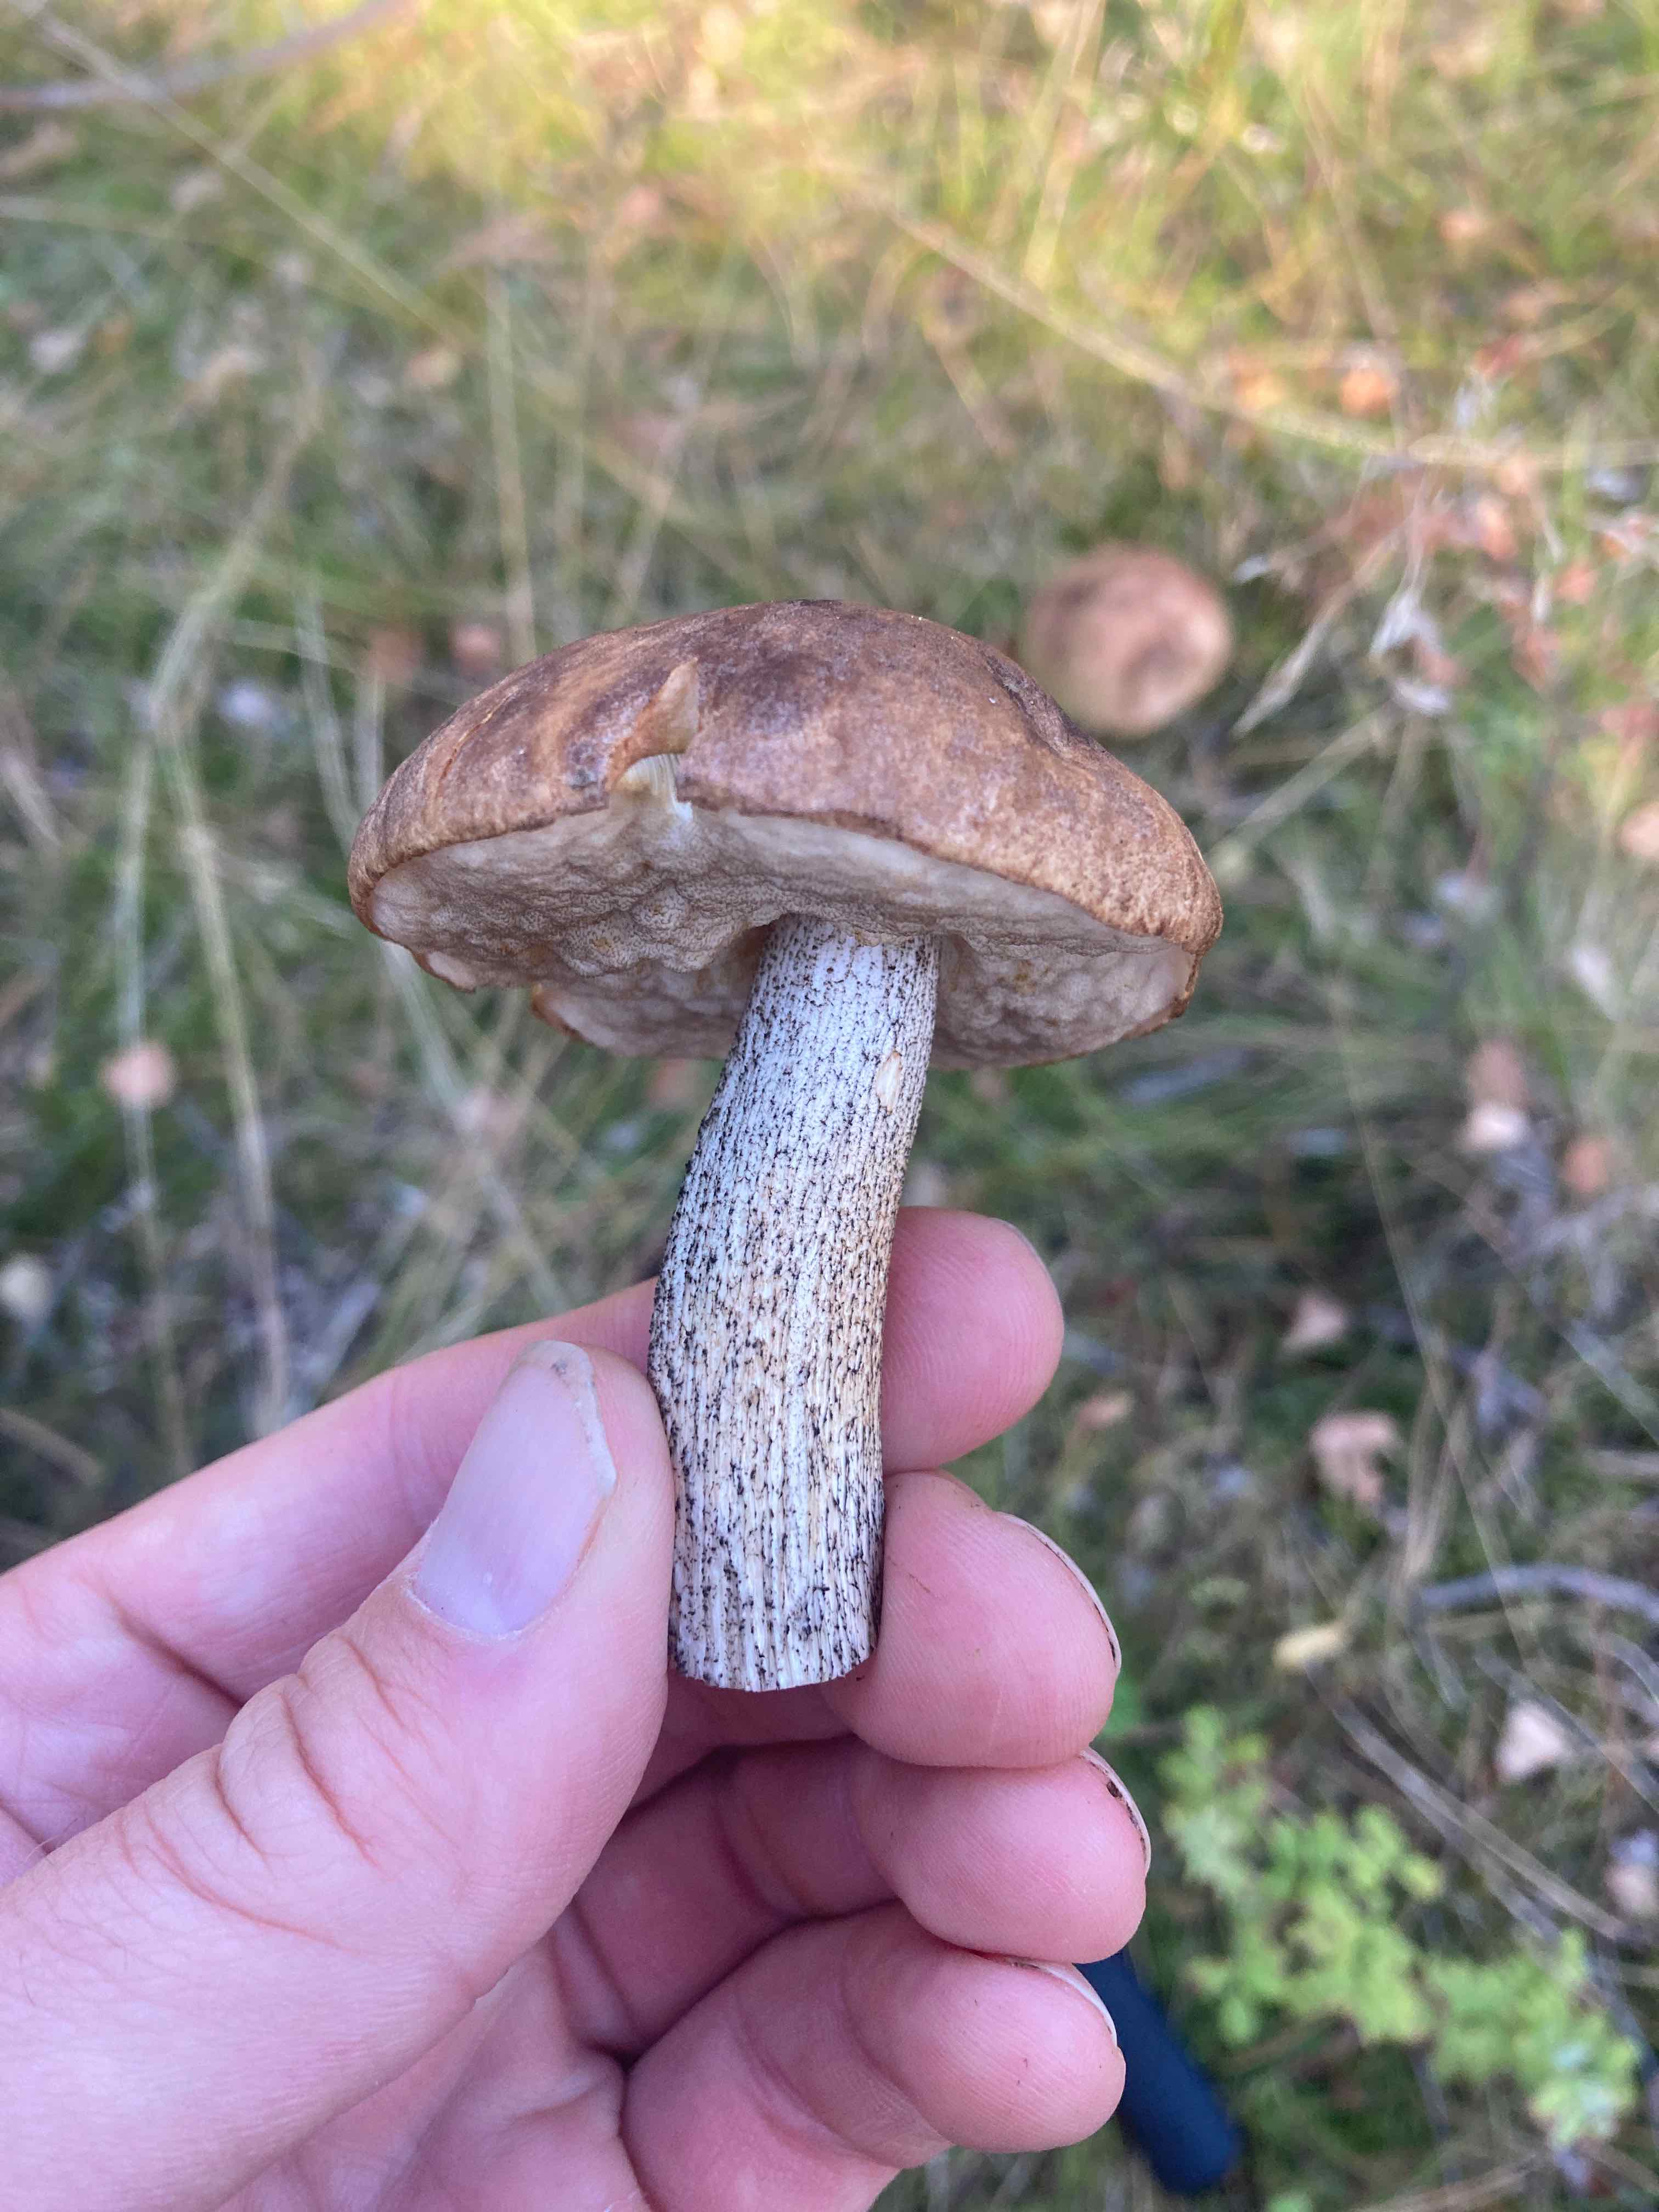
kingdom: Fungi
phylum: Basidiomycota
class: Agaricomycetes
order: Boletales
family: Boletaceae
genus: Leccinum
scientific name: Leccinum scabrum
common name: brun skælrørhat
